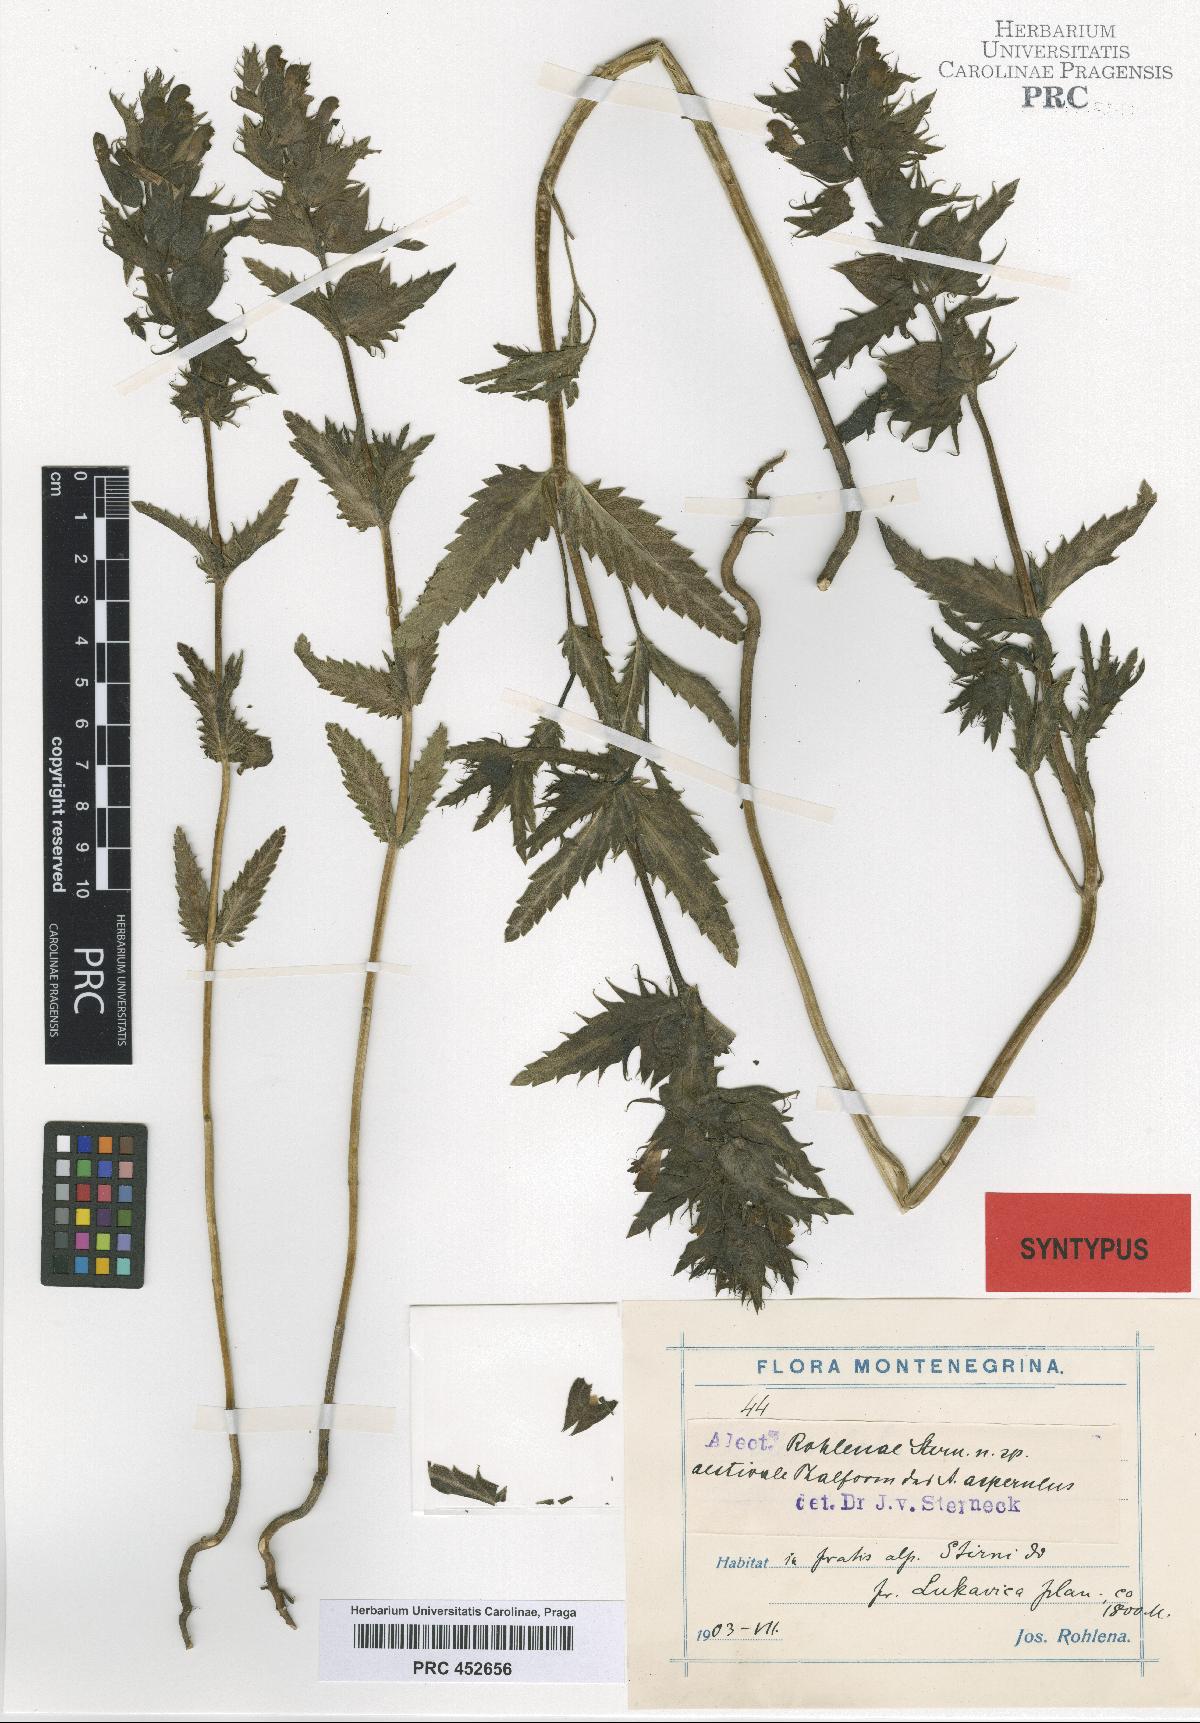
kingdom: Plantae
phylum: Tracheophyta
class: Magnoliopsida
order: Lamiales
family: Scrophulariaceae
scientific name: Scrophulariaceae
